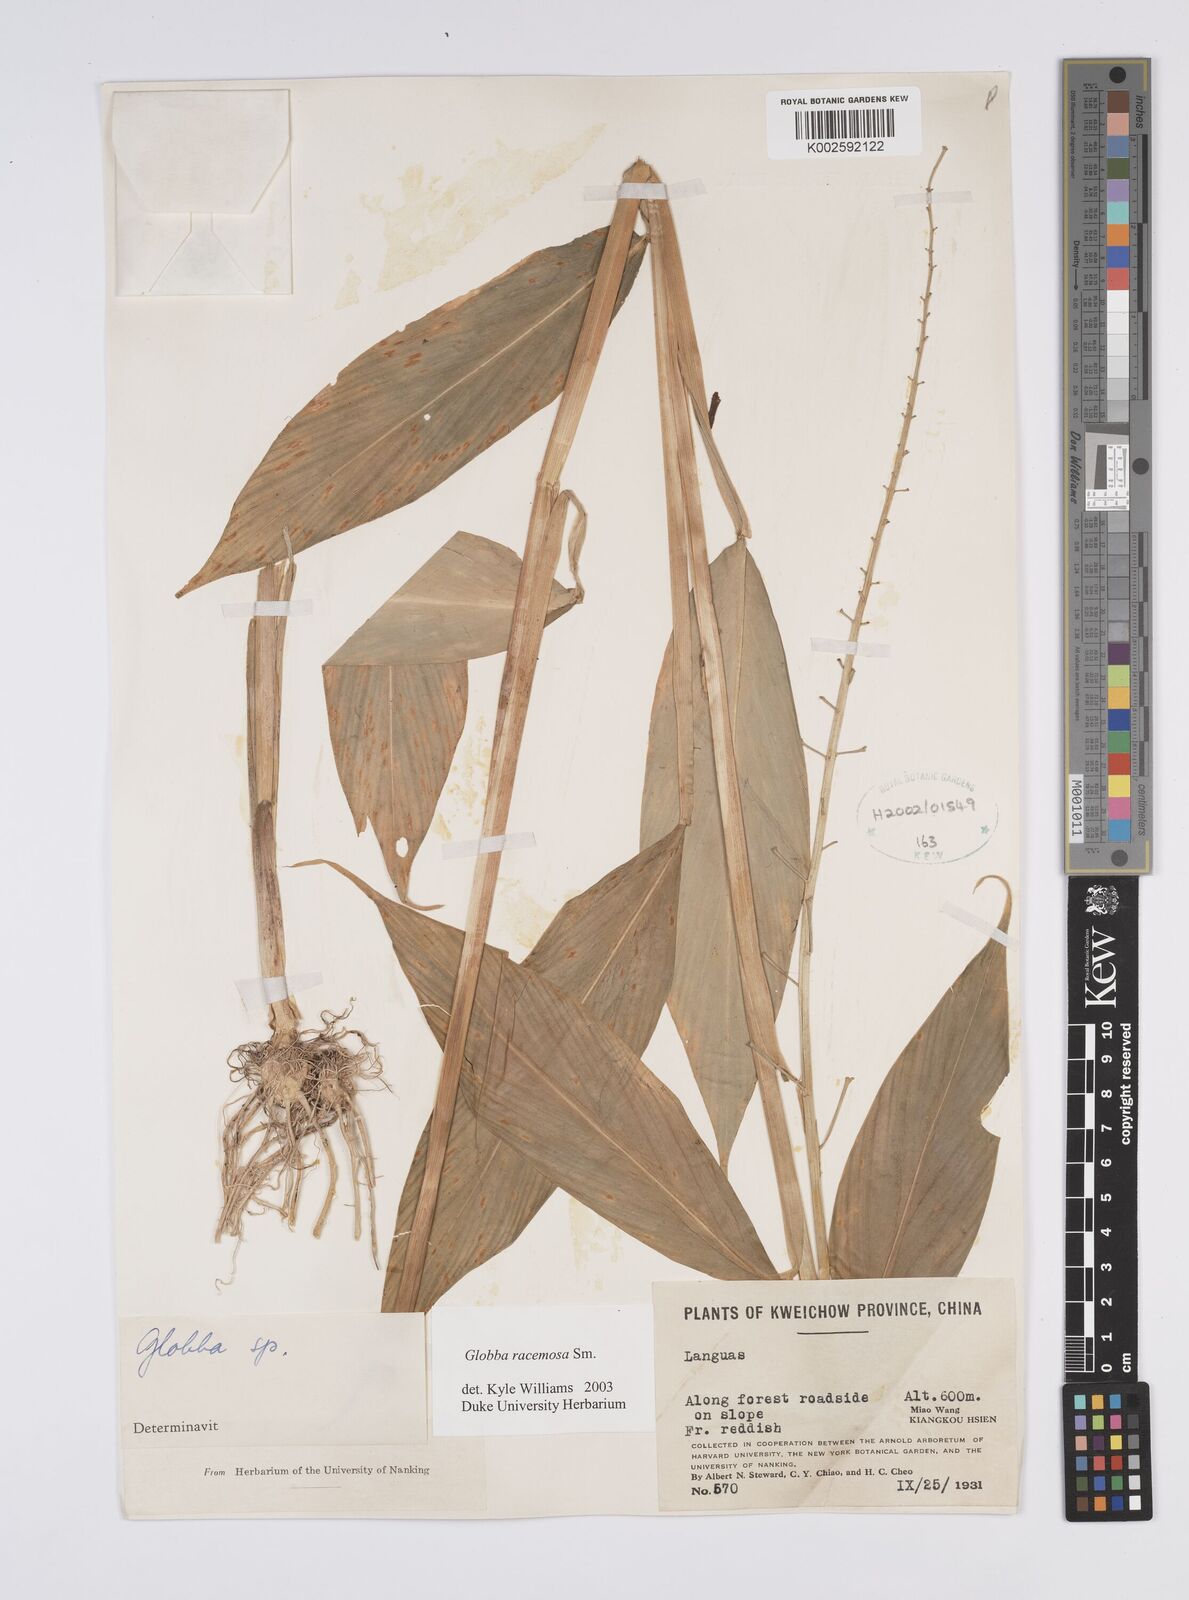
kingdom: Plantae
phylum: Tracheophyta
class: Liliopsida
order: Zingiberales
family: Zingiberaceae
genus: Globba
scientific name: Globba racemosa
